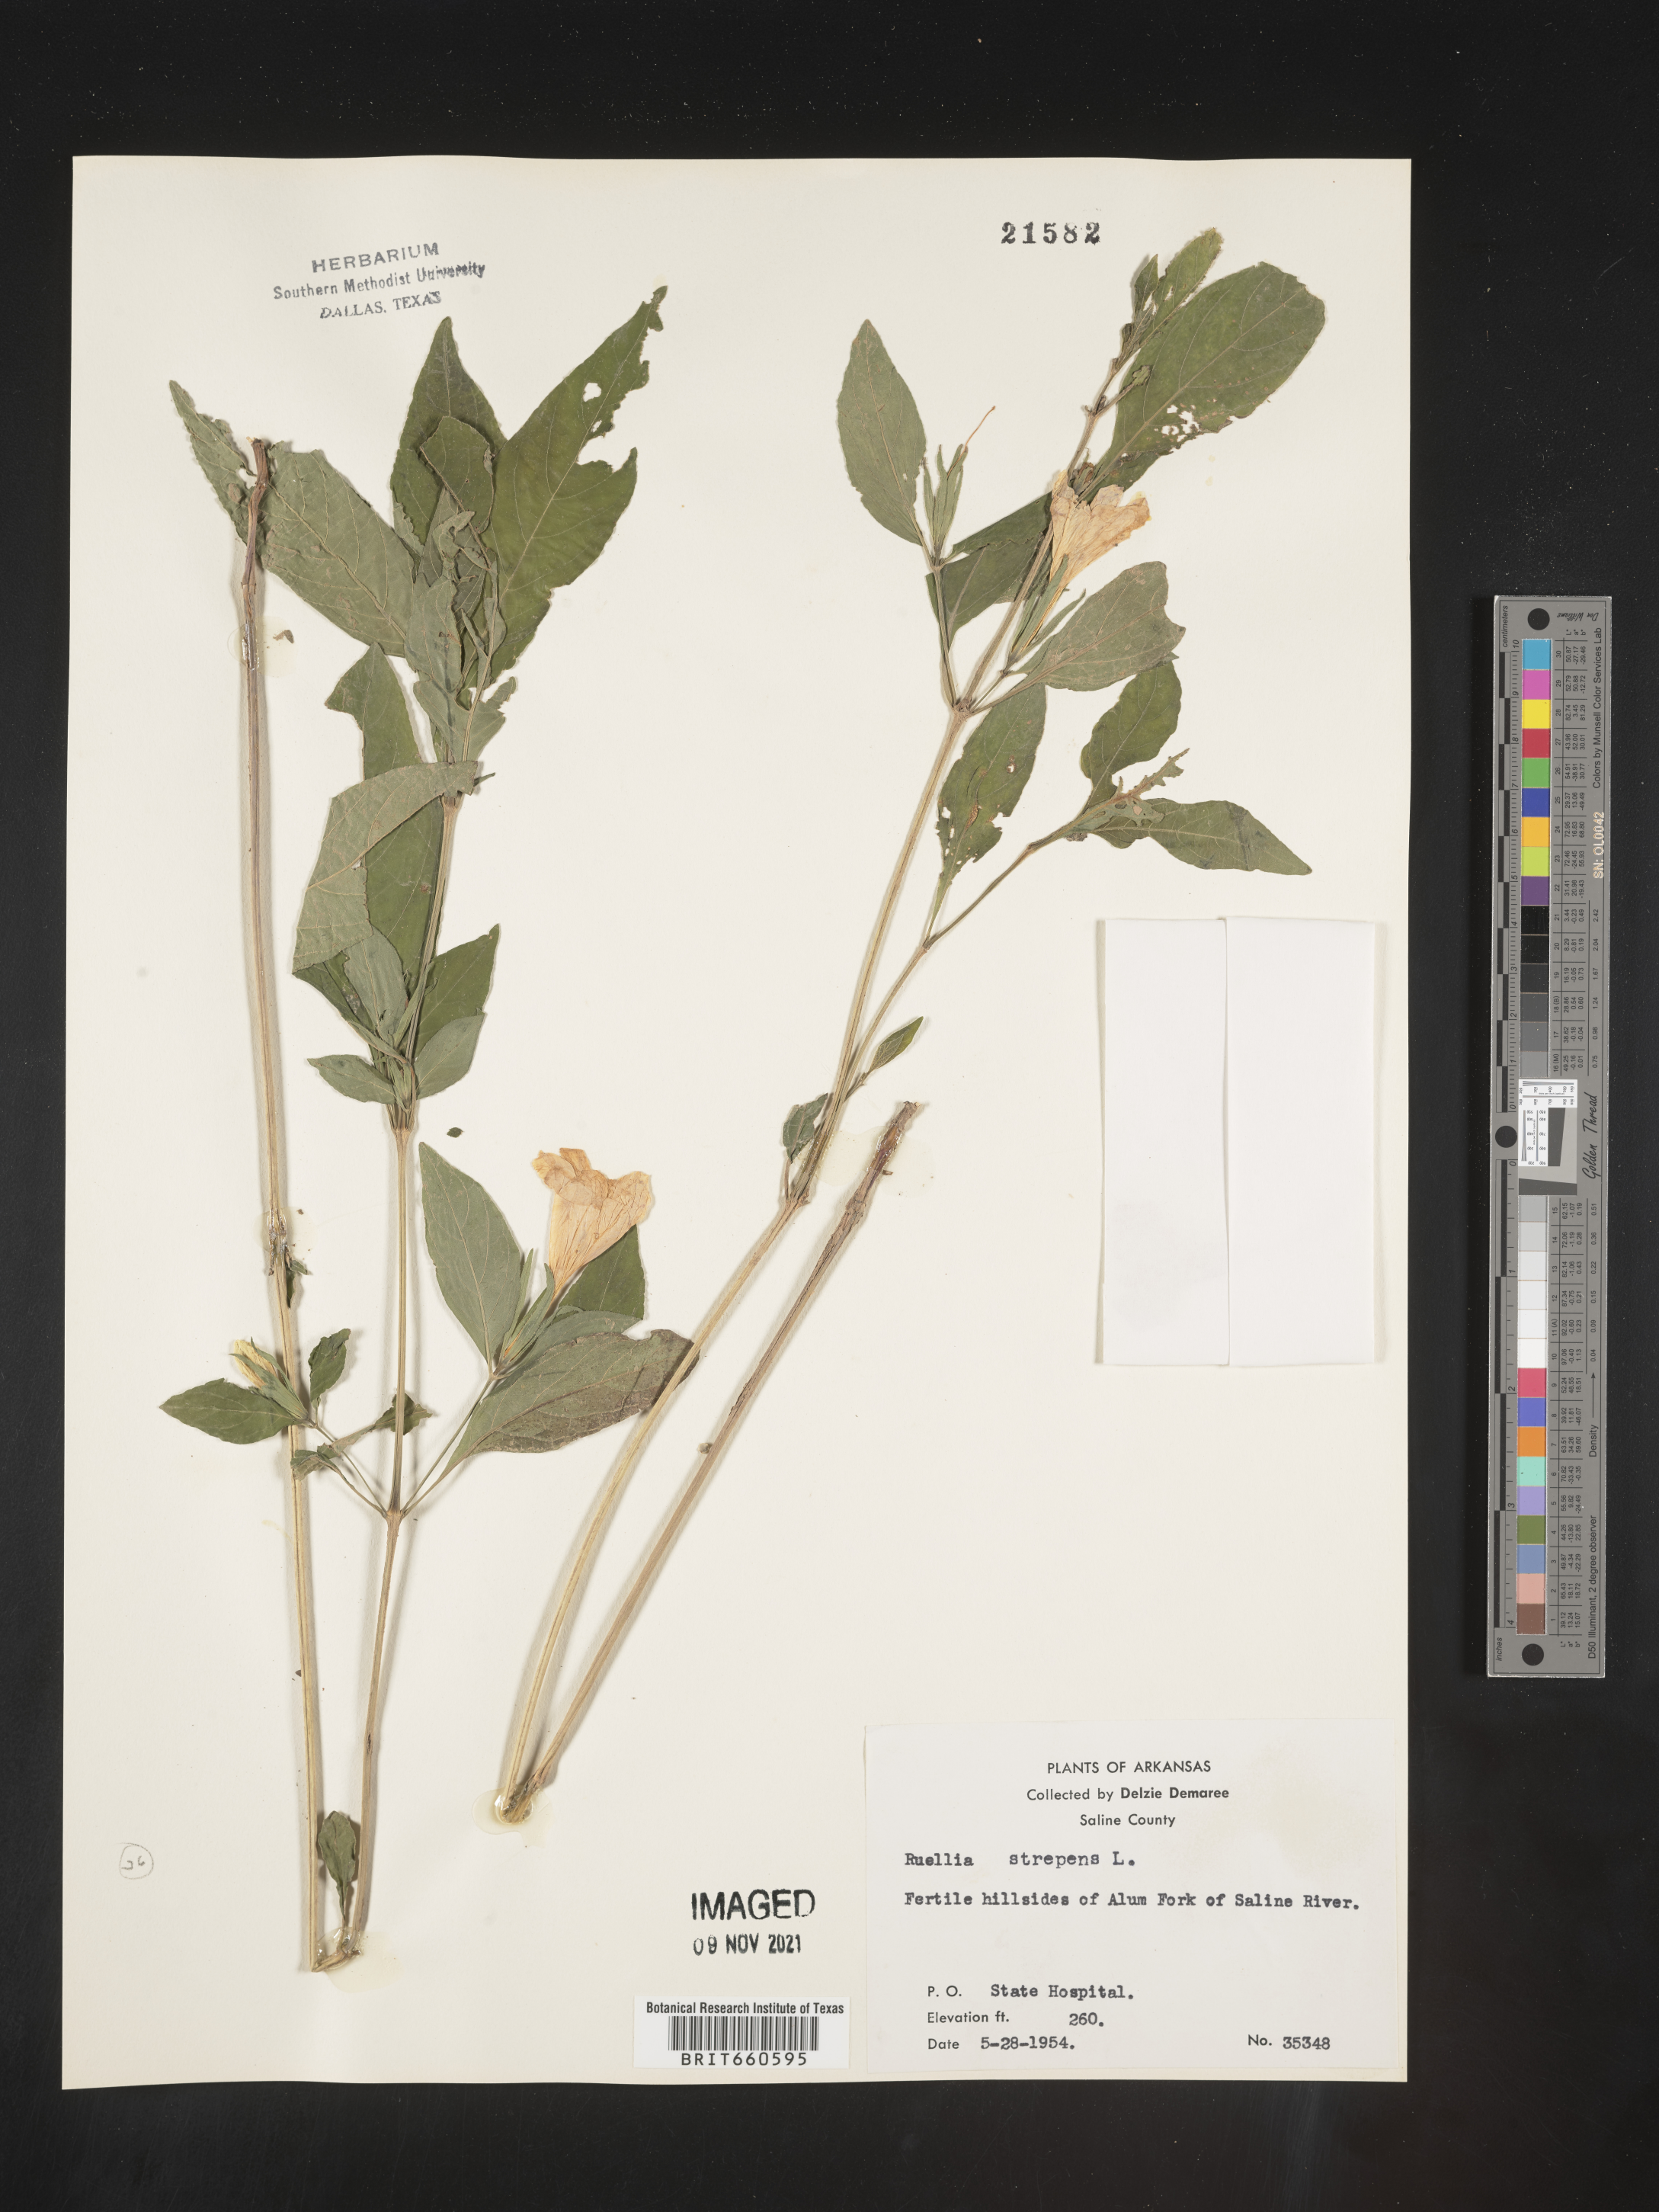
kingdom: Plantae
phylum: Tracheophyta
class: Magnoliopsida
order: Lamiales
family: Acanthaceae
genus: Ruellia
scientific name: Ruellia strepens
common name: Limestone wild petunia
